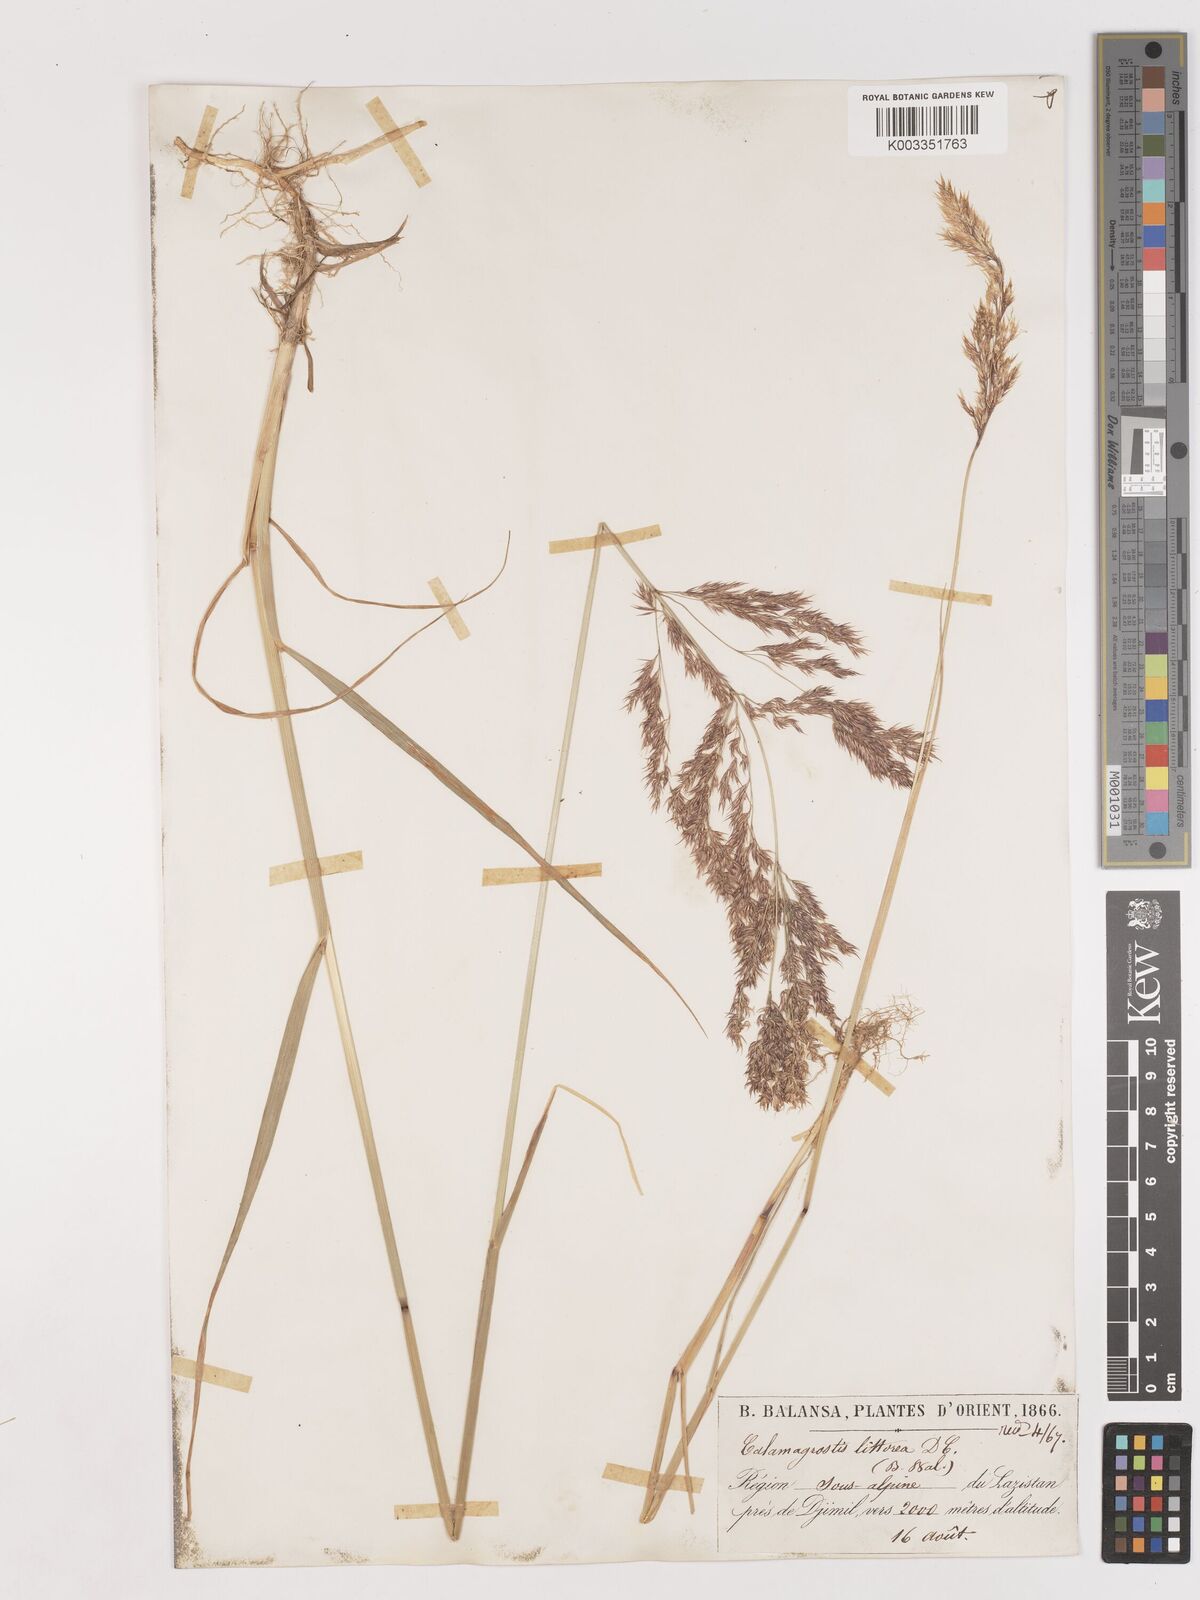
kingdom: Plantae
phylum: Tracheophyta
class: Liliopsida
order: Poales
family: Poaceae
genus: Calamagrostis
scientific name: Calamagrostis pseudophragmites
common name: Coastal small-reed
